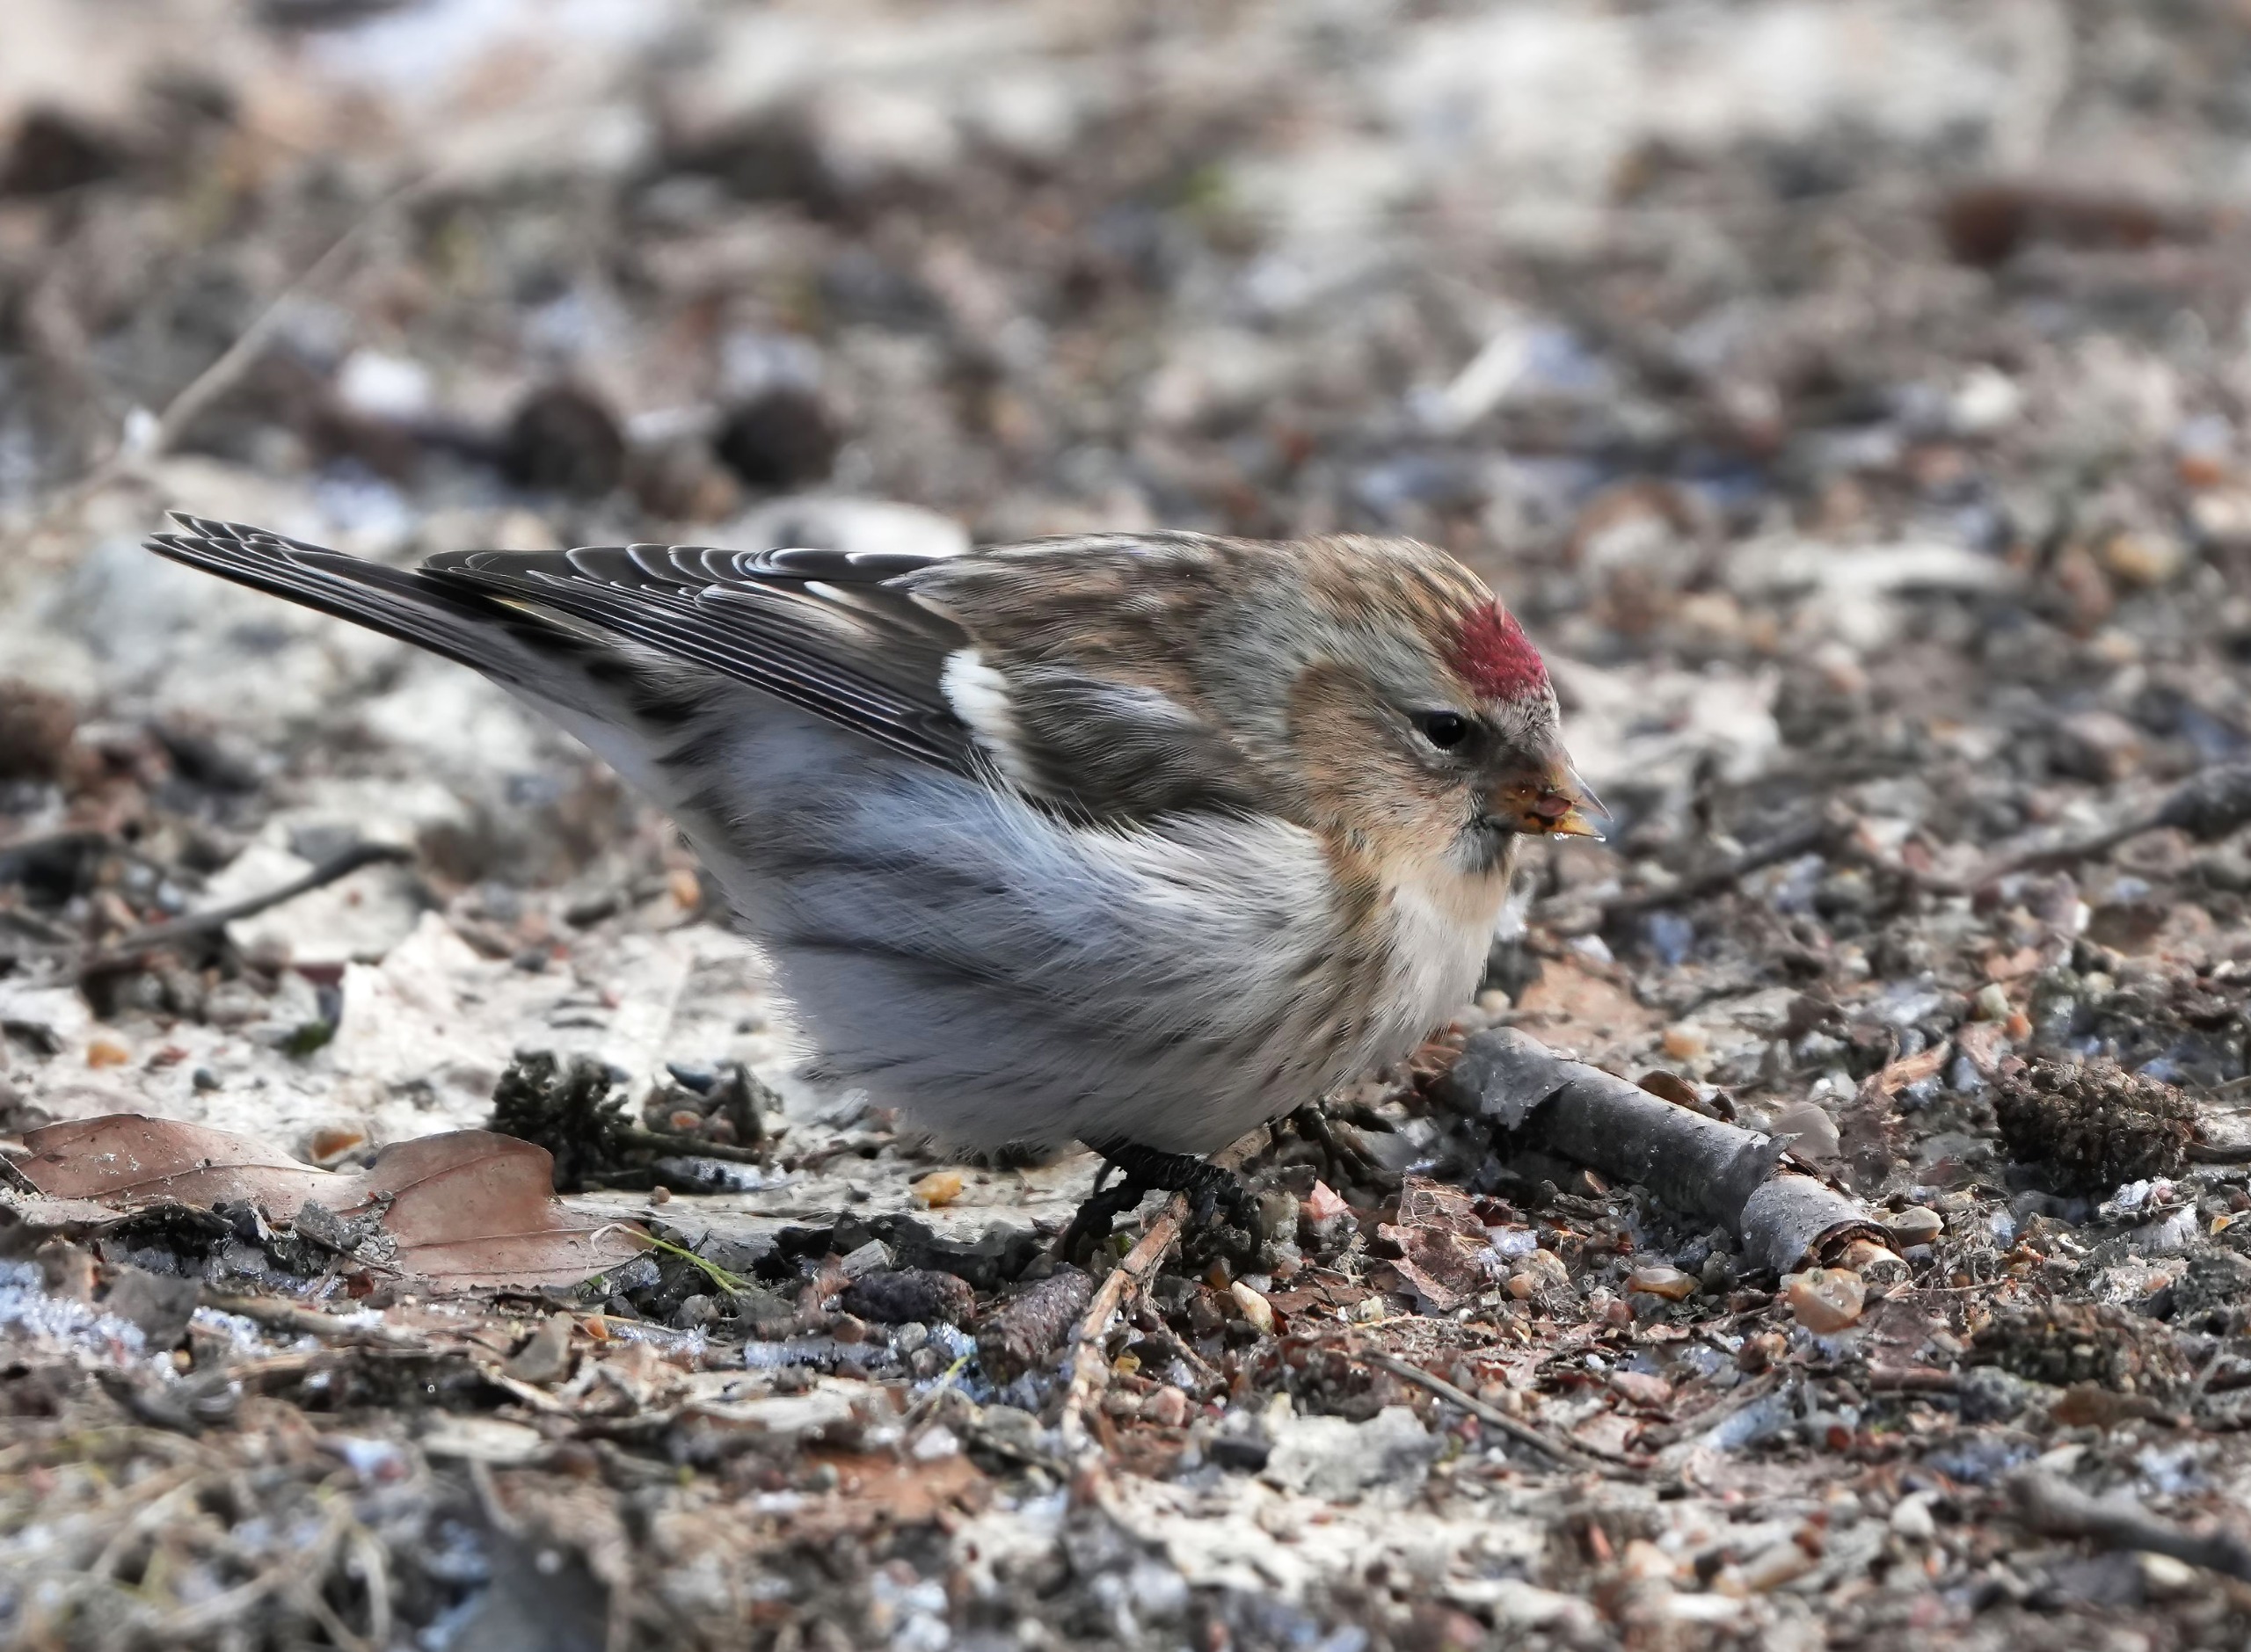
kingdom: Animalia
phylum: Chordata
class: Aves
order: Passeriformes
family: Fringillidae
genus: Acanthis
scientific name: Acanthis flammea
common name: Nordlig gråsisken
